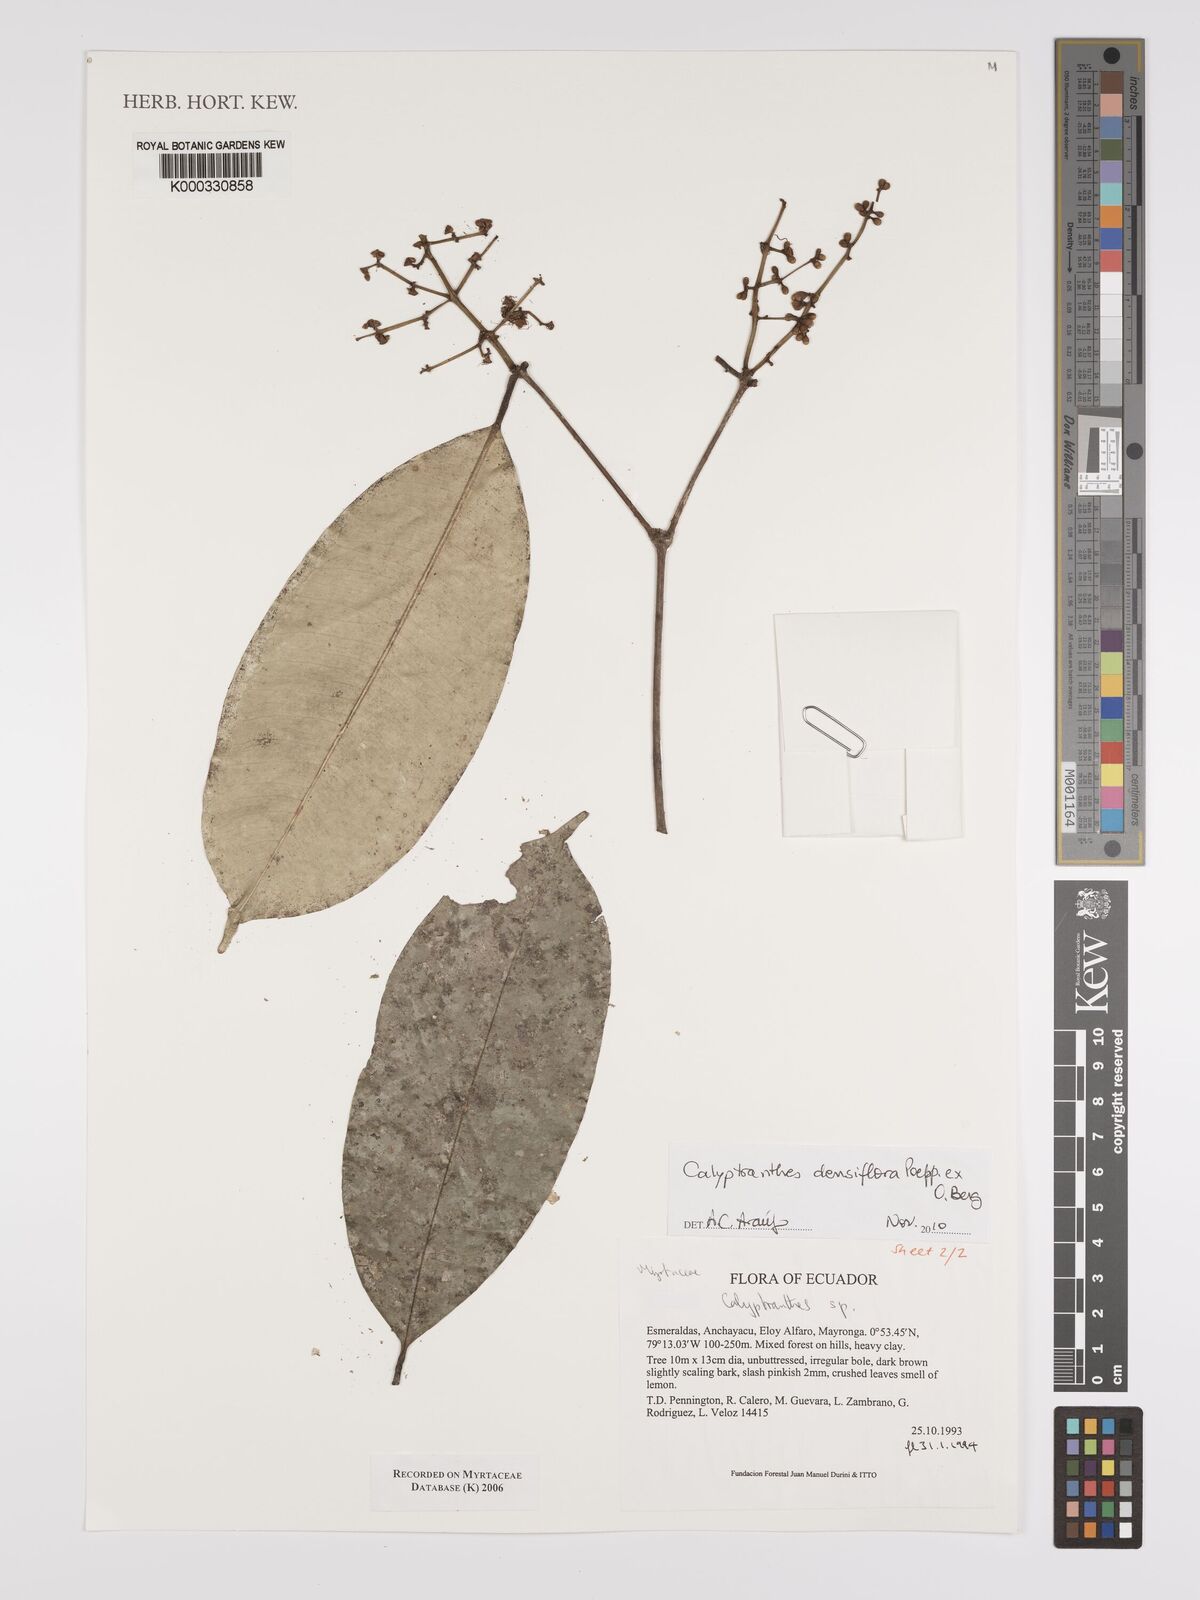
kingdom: Plantae
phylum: Tracheophyta
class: Magnoliopsida
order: Myrtales
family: Myrtaceae
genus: Calyptranthes
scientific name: Calyptranthes
